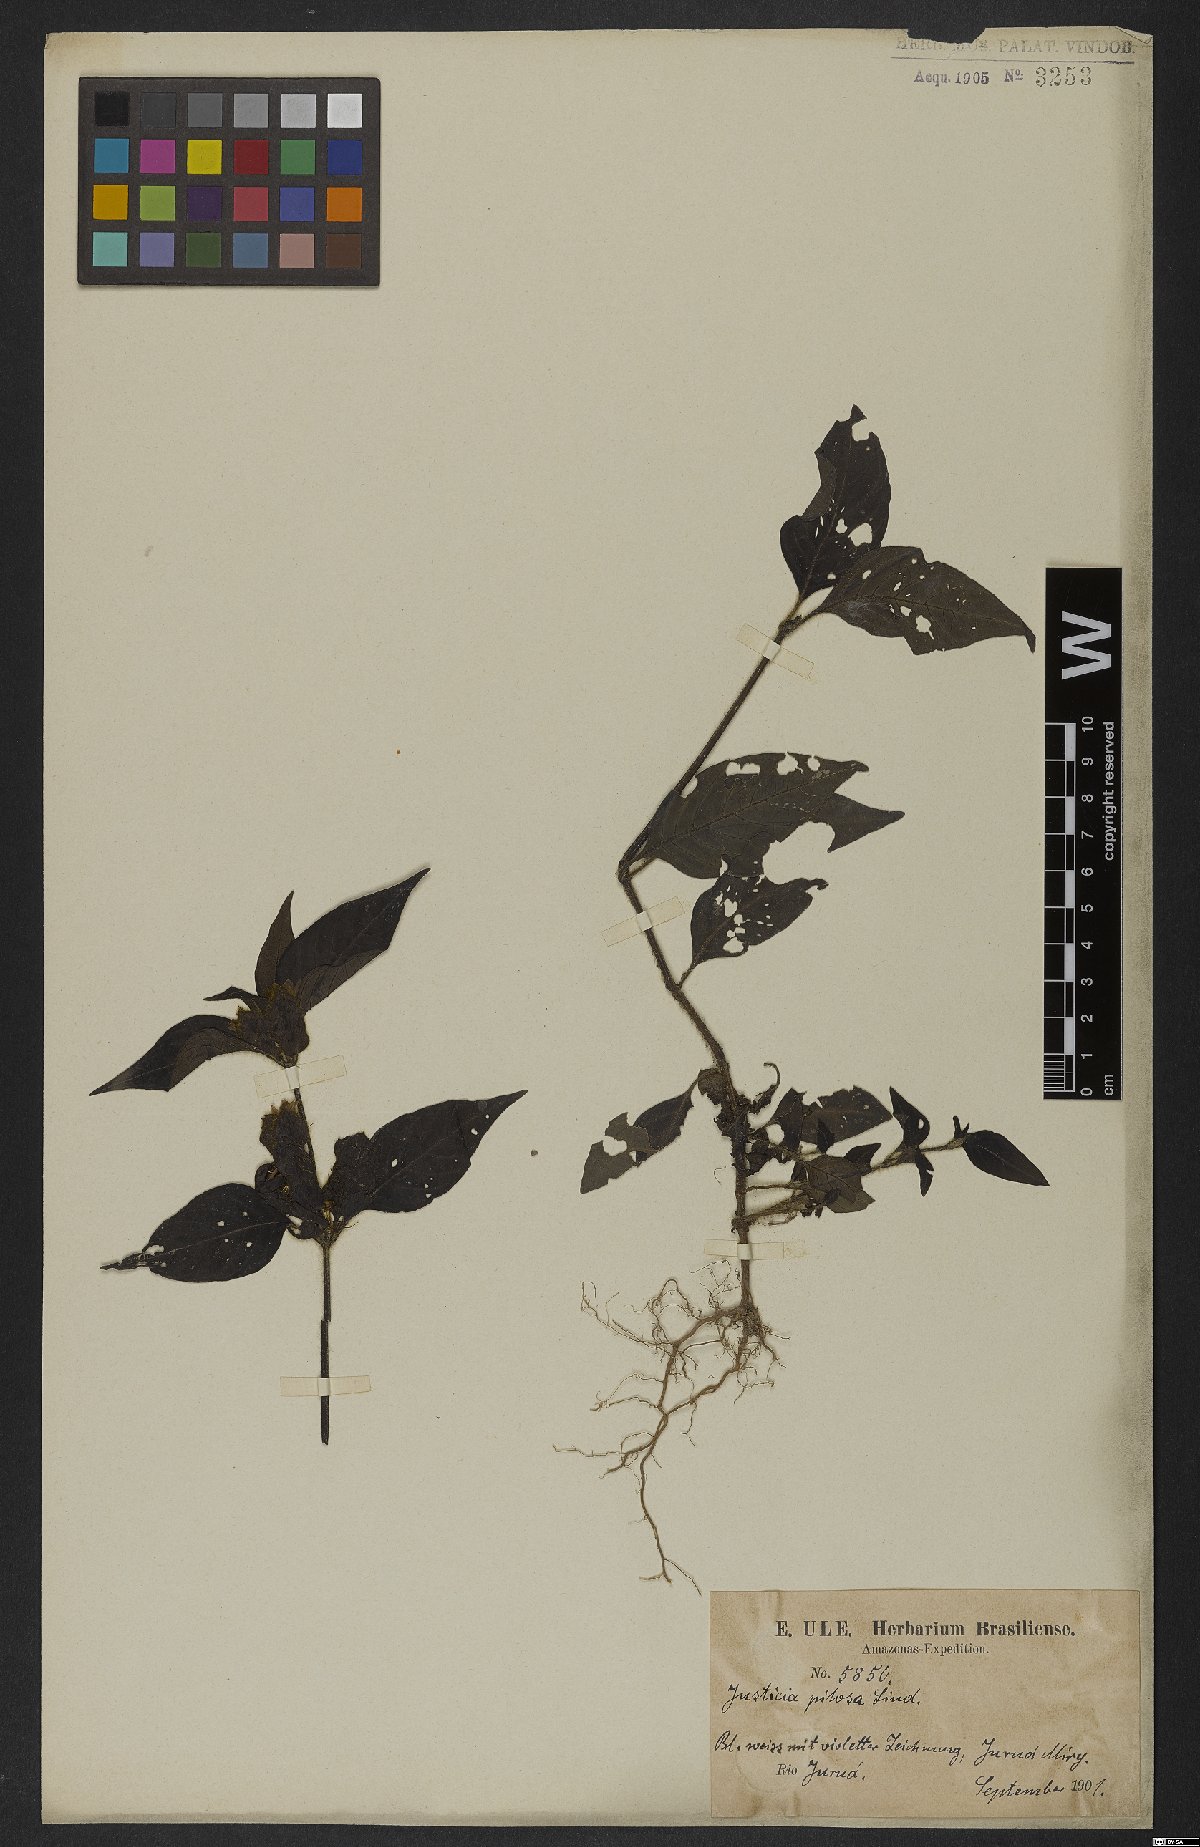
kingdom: Plantae
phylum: Tracheophyta
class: Magnoliopsida
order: Lamiales
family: Acanthaceae
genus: Justicia
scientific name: Justicia pilosa
